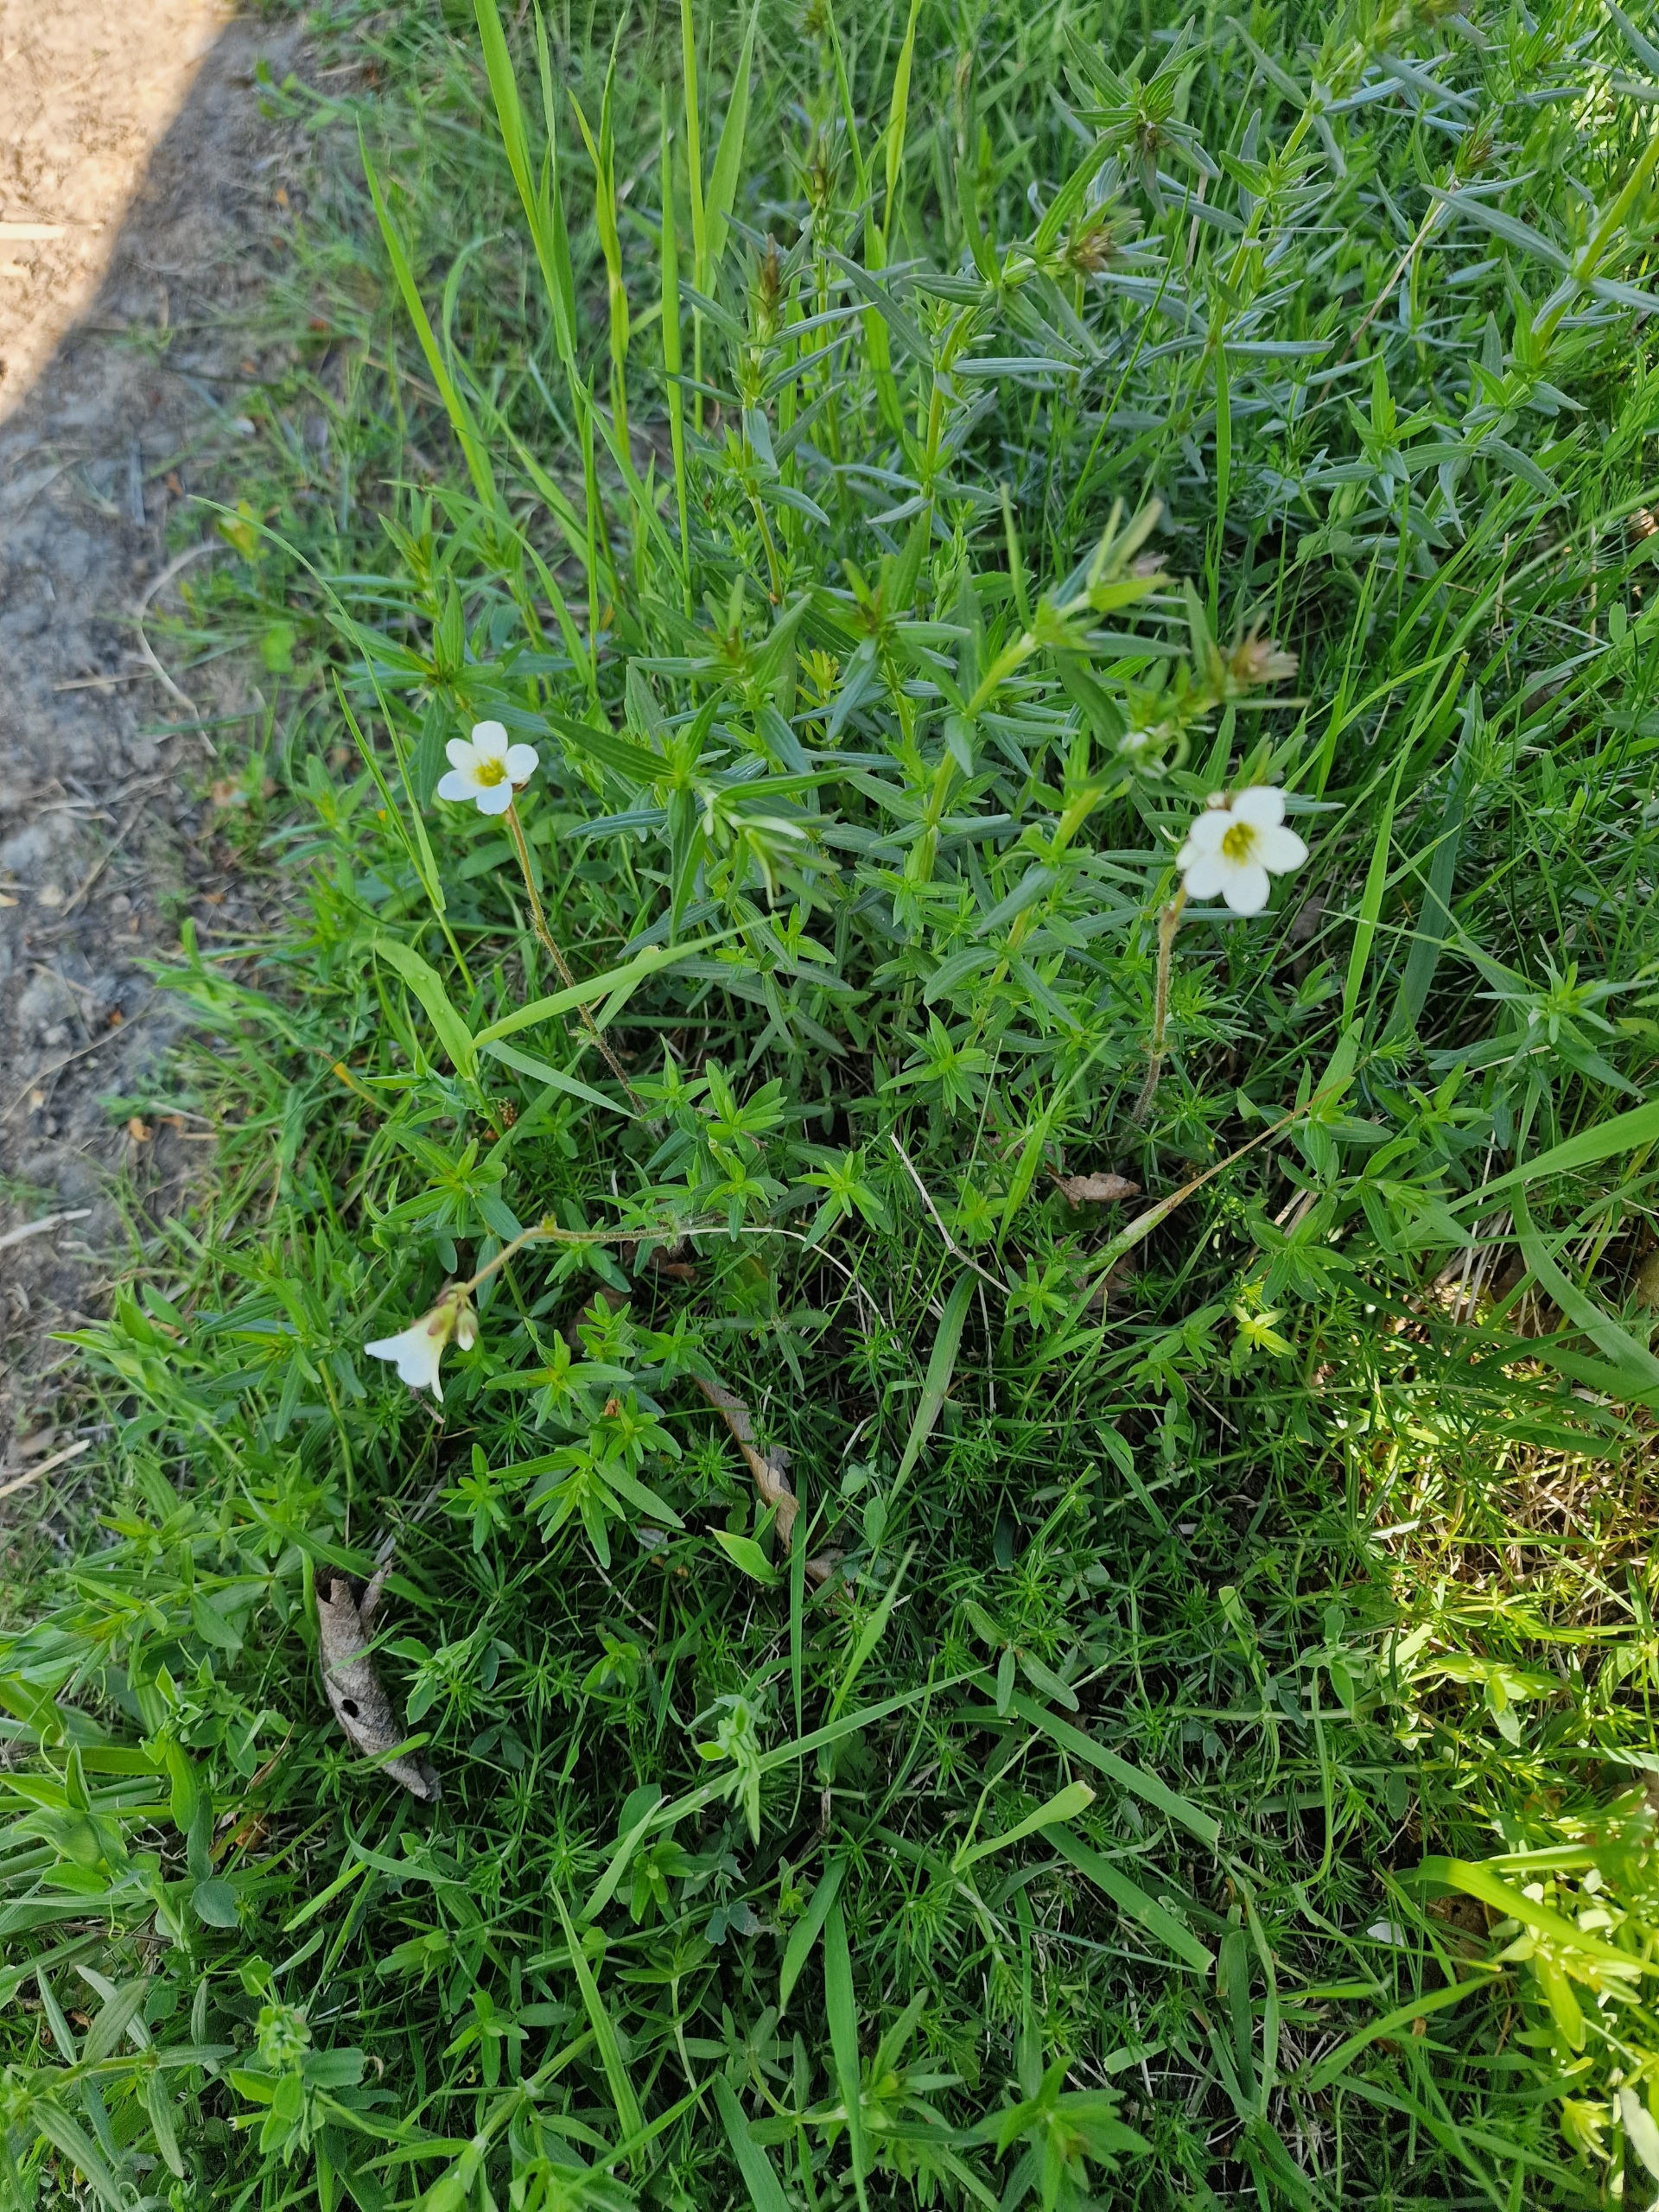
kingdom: Plantae
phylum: Tracheophyta
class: Magnoliopsida
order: Saxifragales
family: Saxifragaceae
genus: Saxifraga
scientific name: Saxifraga granulata
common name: Kornet stenbræk
